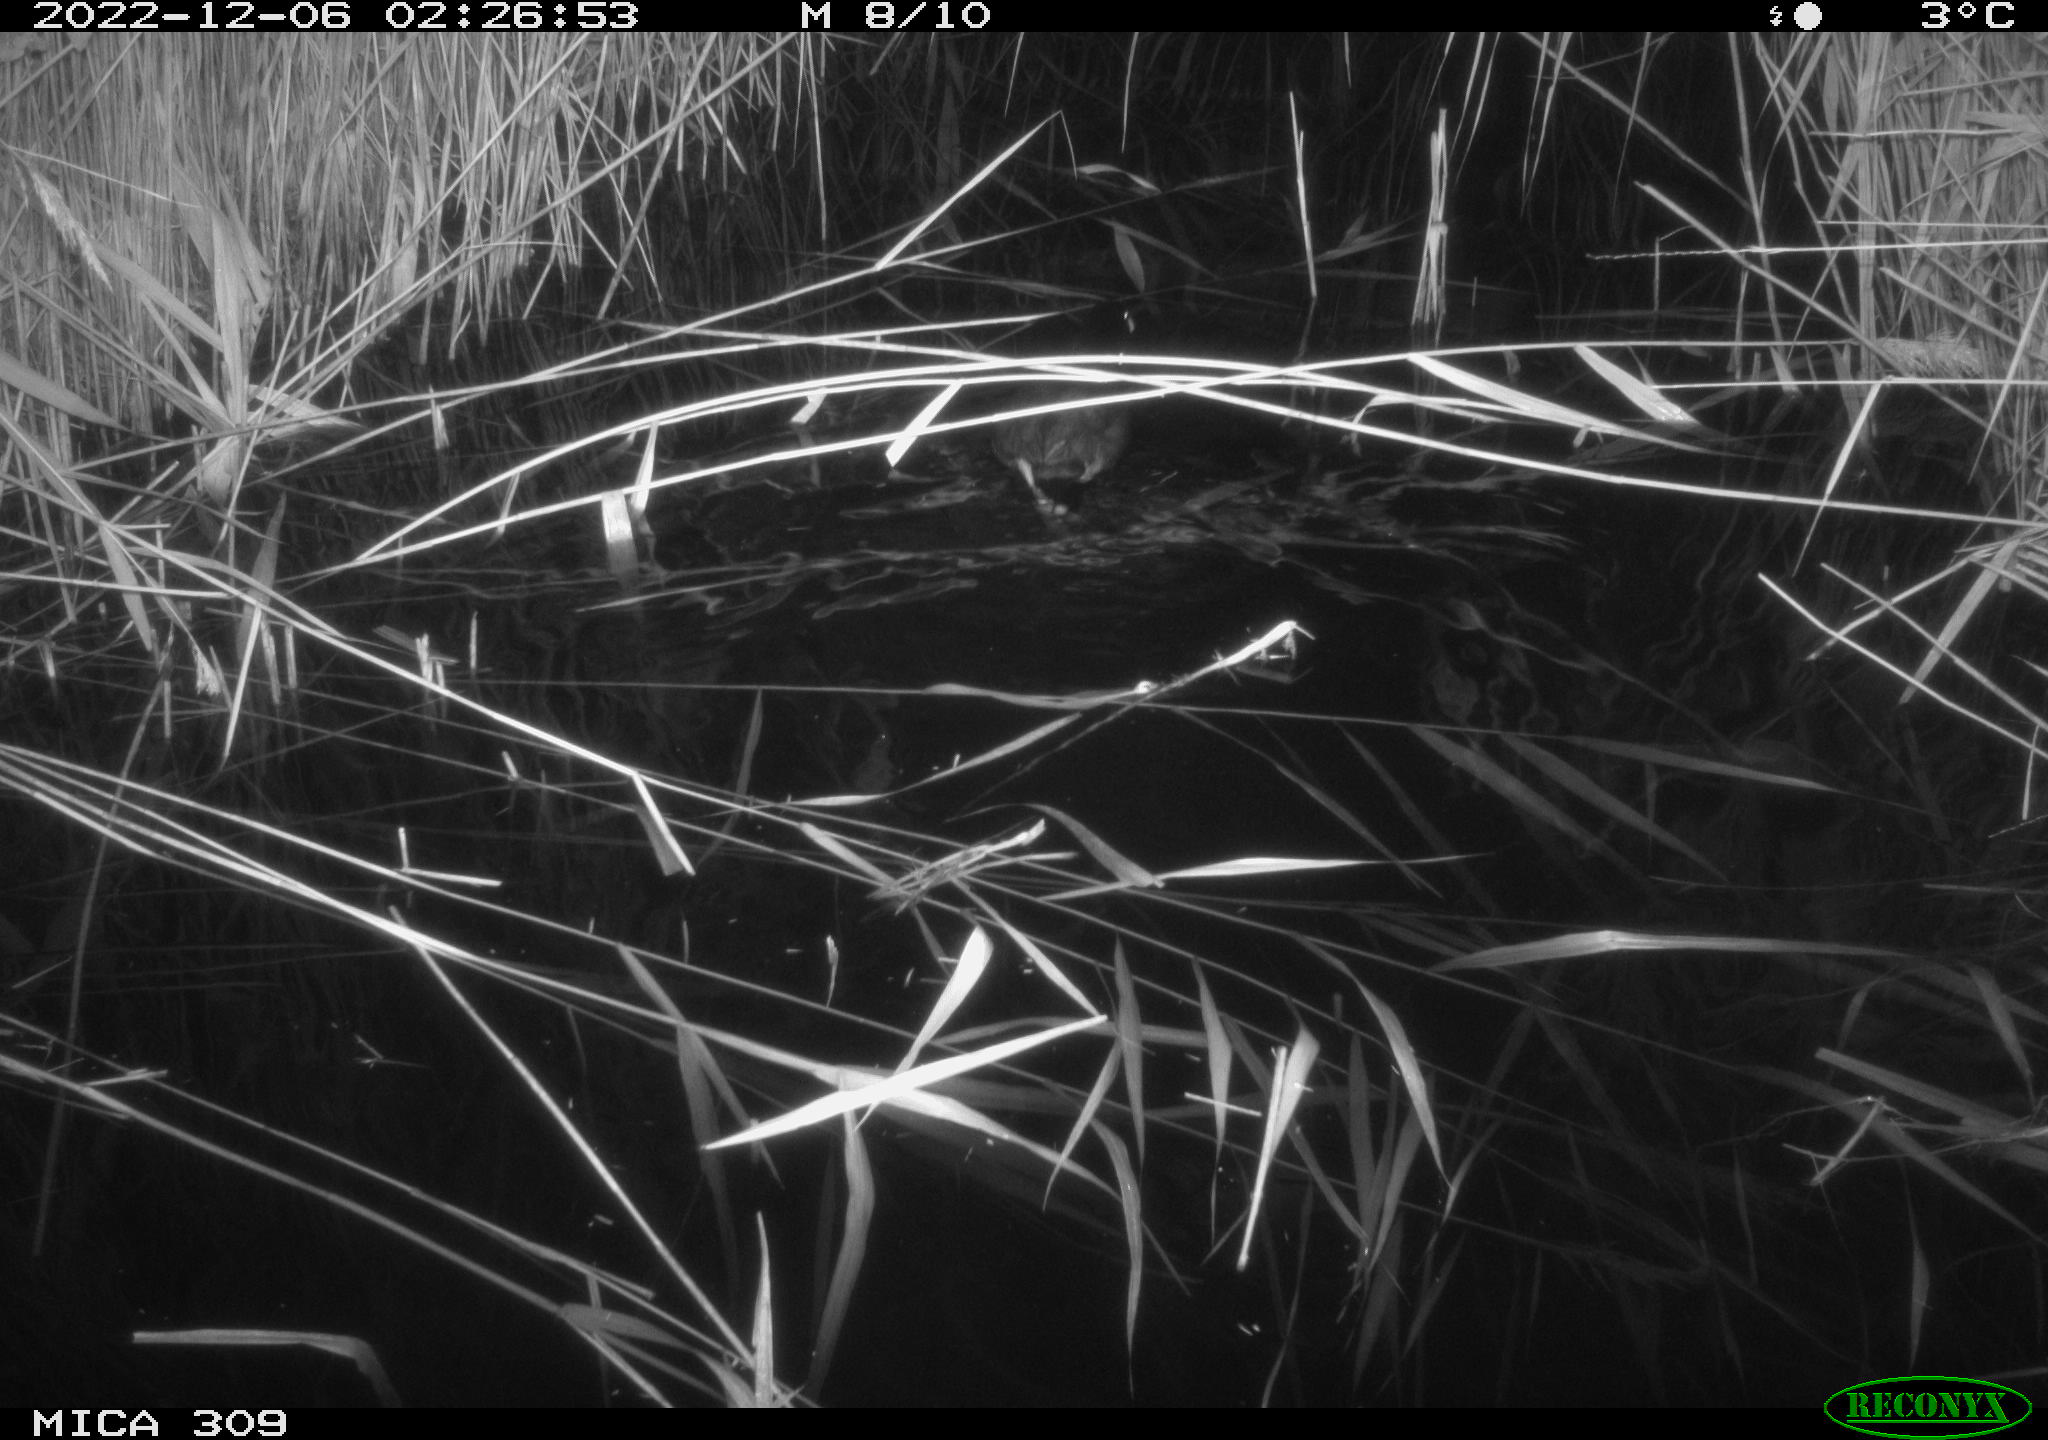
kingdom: Animalia
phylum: Chordata
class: Aves
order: Gruiformes
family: Rallidae
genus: Fulica
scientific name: Fulica atra
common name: Eurasian coot
